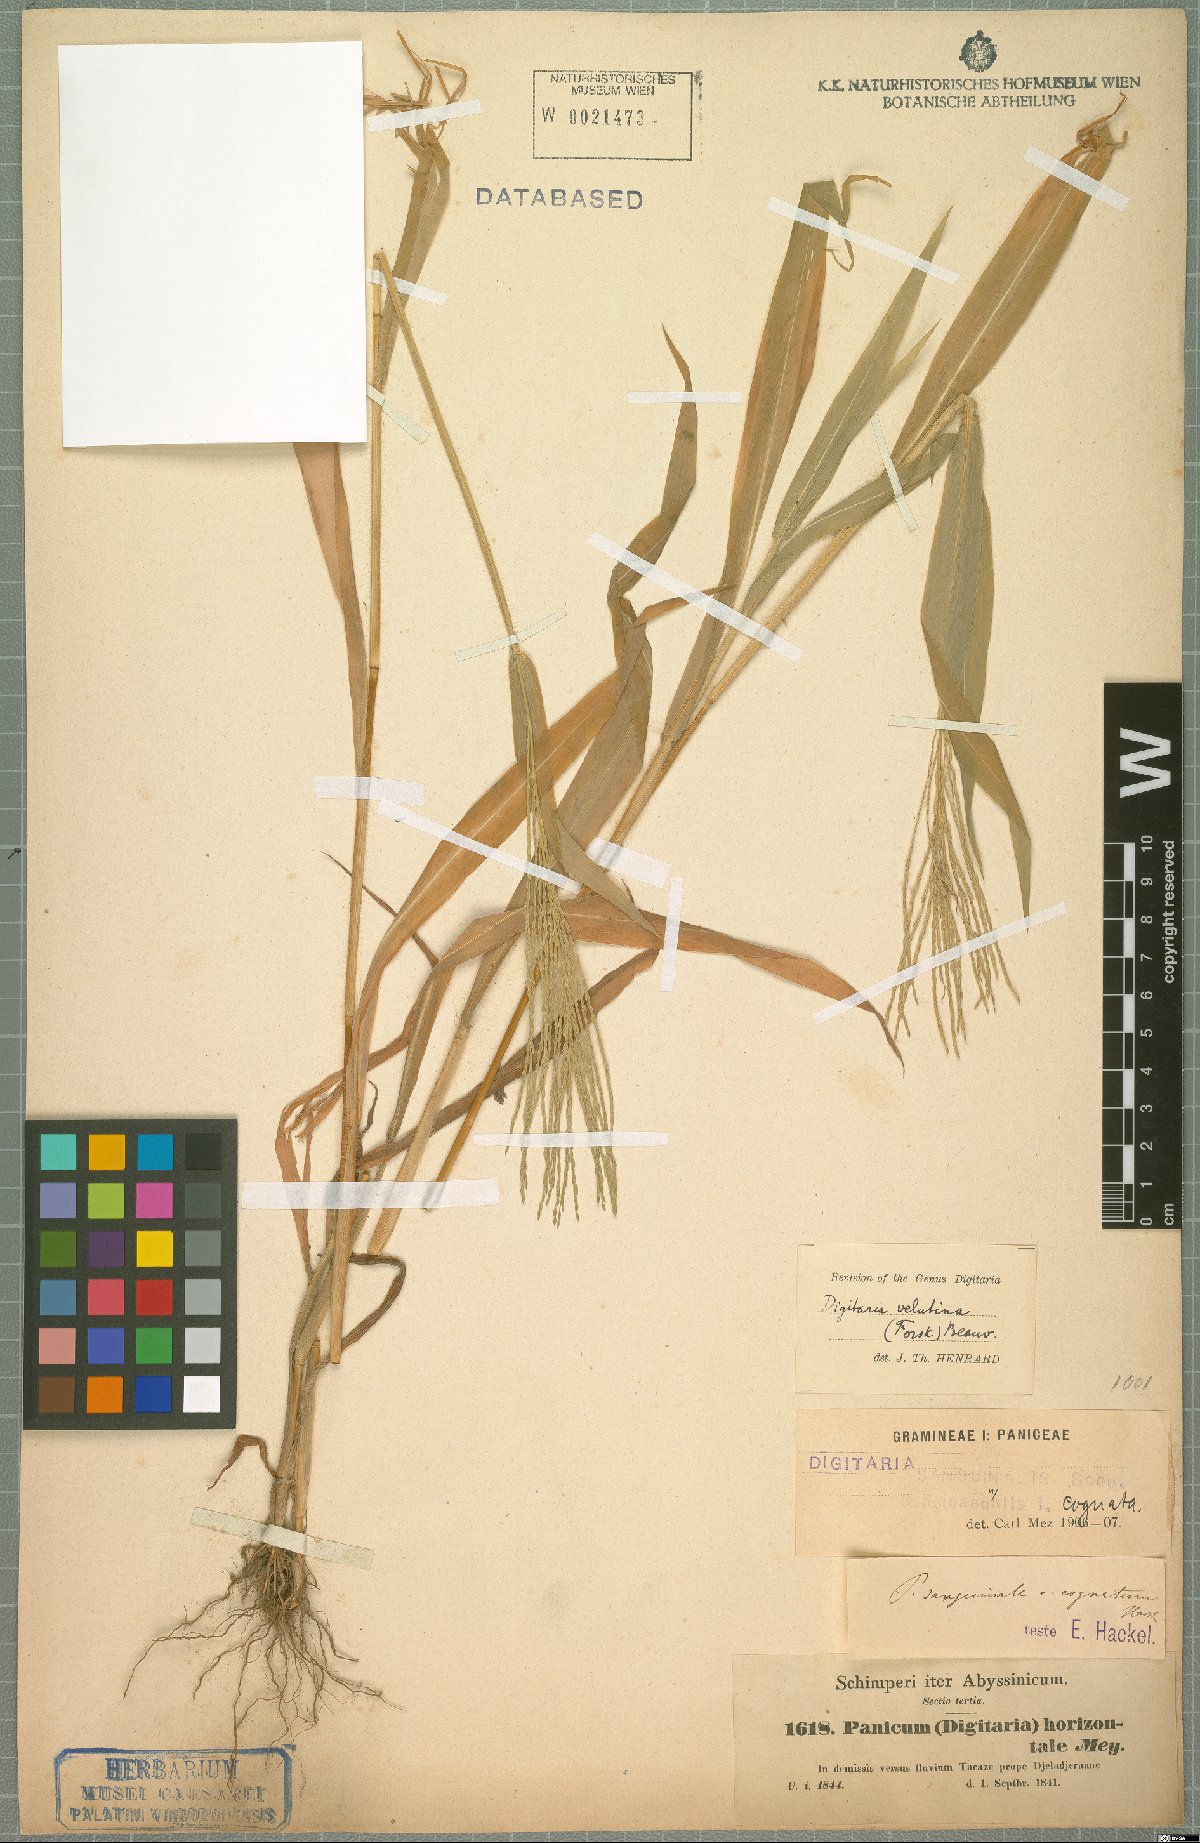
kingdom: Plantae
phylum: Tracheophyta
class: Liliopsida
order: Poales
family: Poaceae
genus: Digitaria
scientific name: Digitaria velutina
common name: Long-plume finger grass
